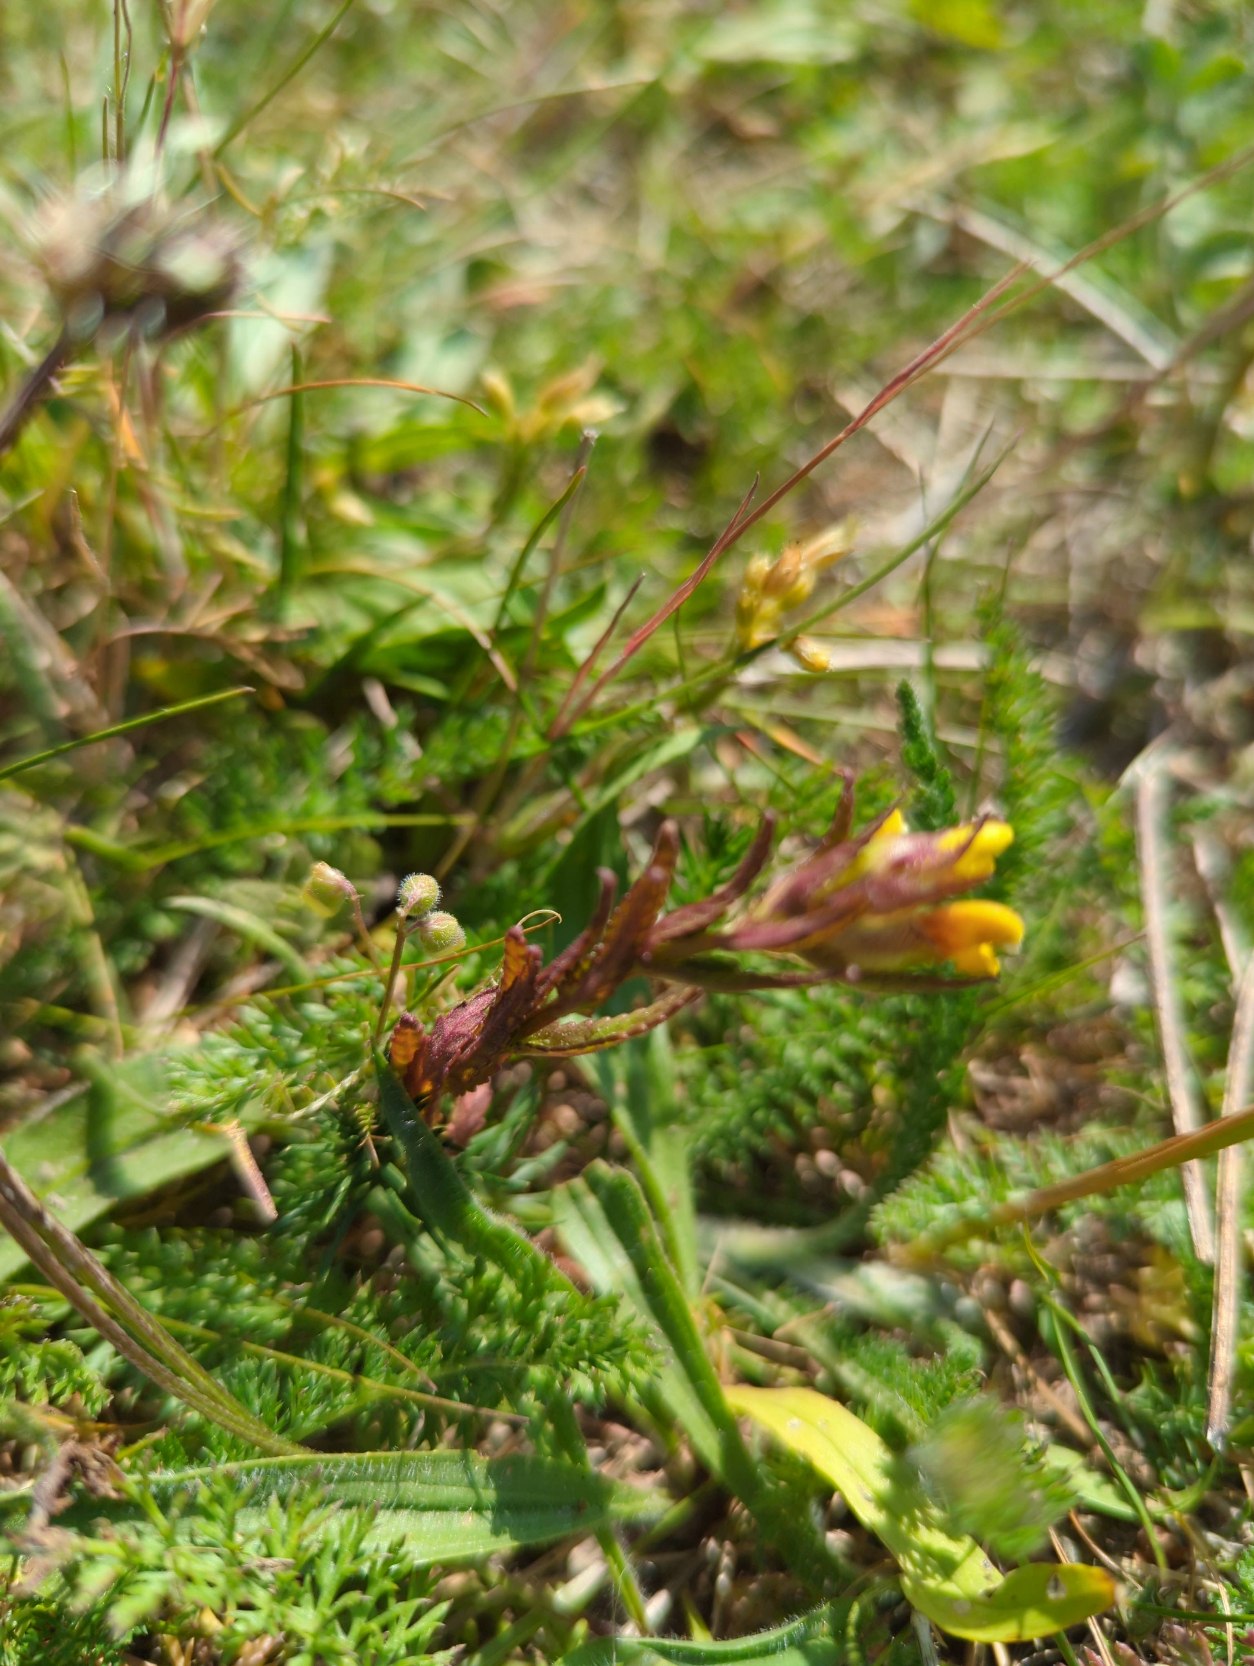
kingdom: Plantae
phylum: Tracheophyta
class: Magnoliopsida
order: Lamiales
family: Orobanchaceae
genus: Rhinanthus
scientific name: Rhinanthus minor
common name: Liden skjaller
